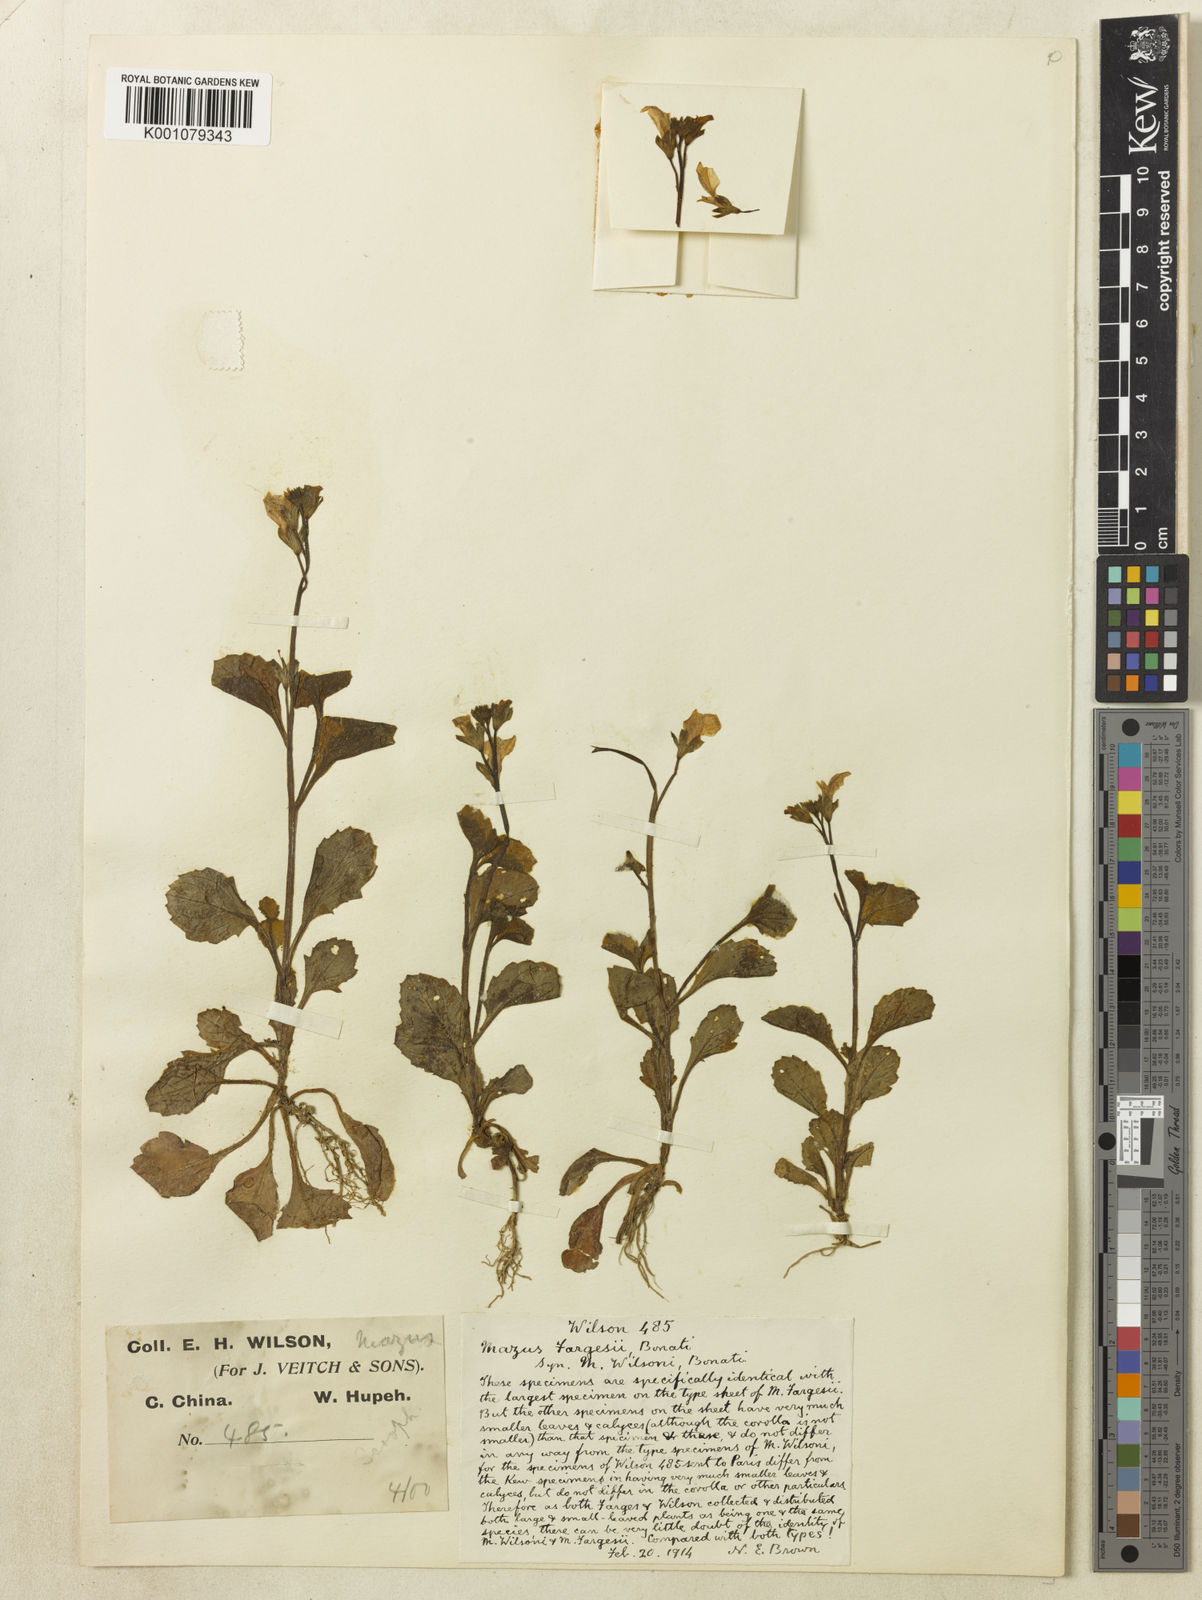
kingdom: Plantae
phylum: Tracheophyta
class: Magnoliopsida
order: Lamiales
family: Mazaceae
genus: Mazus
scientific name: Mazus miquelii
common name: Miquel's mazus
